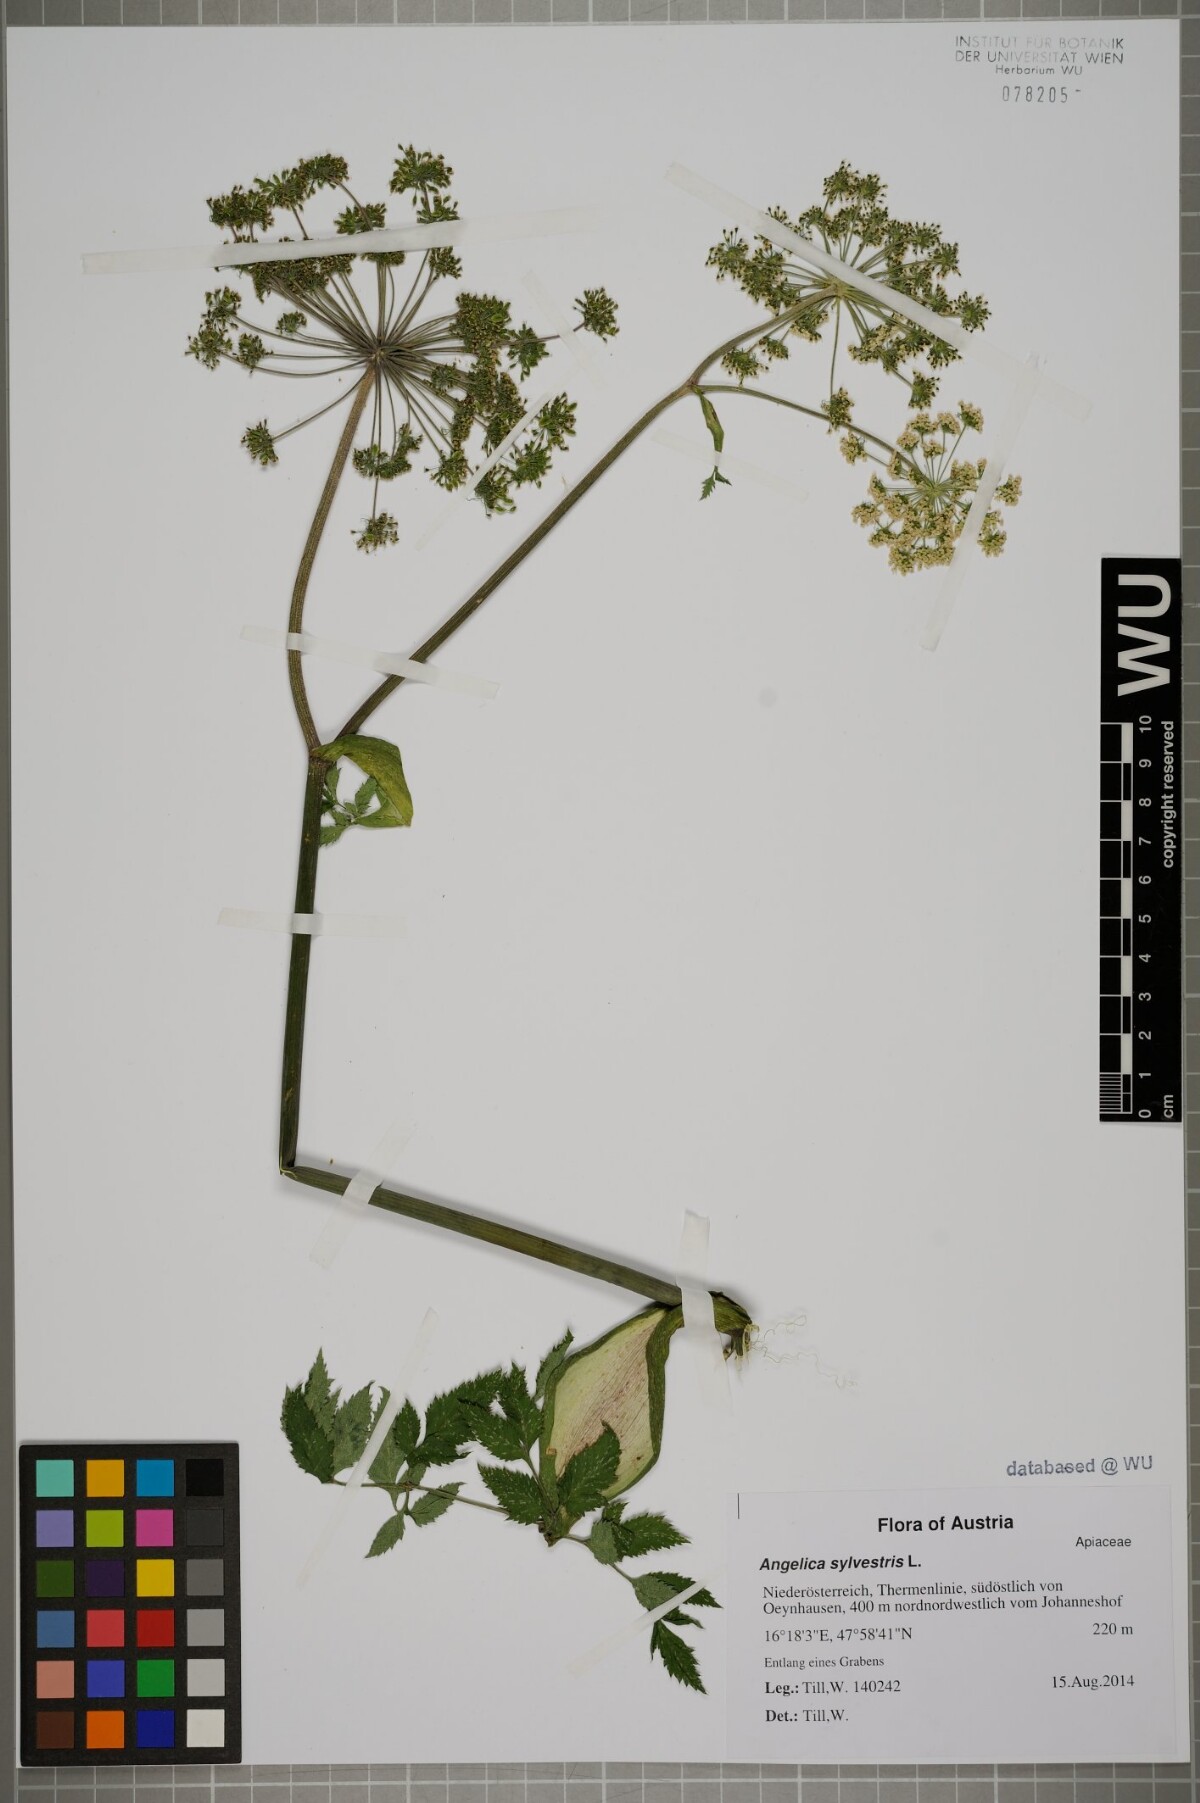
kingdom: Plantae
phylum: Tracheophyta
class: Magnoliopsida
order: Apiales
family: Apiaceae
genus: Angelica
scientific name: Angelica sylvestris
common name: Wild angelica
